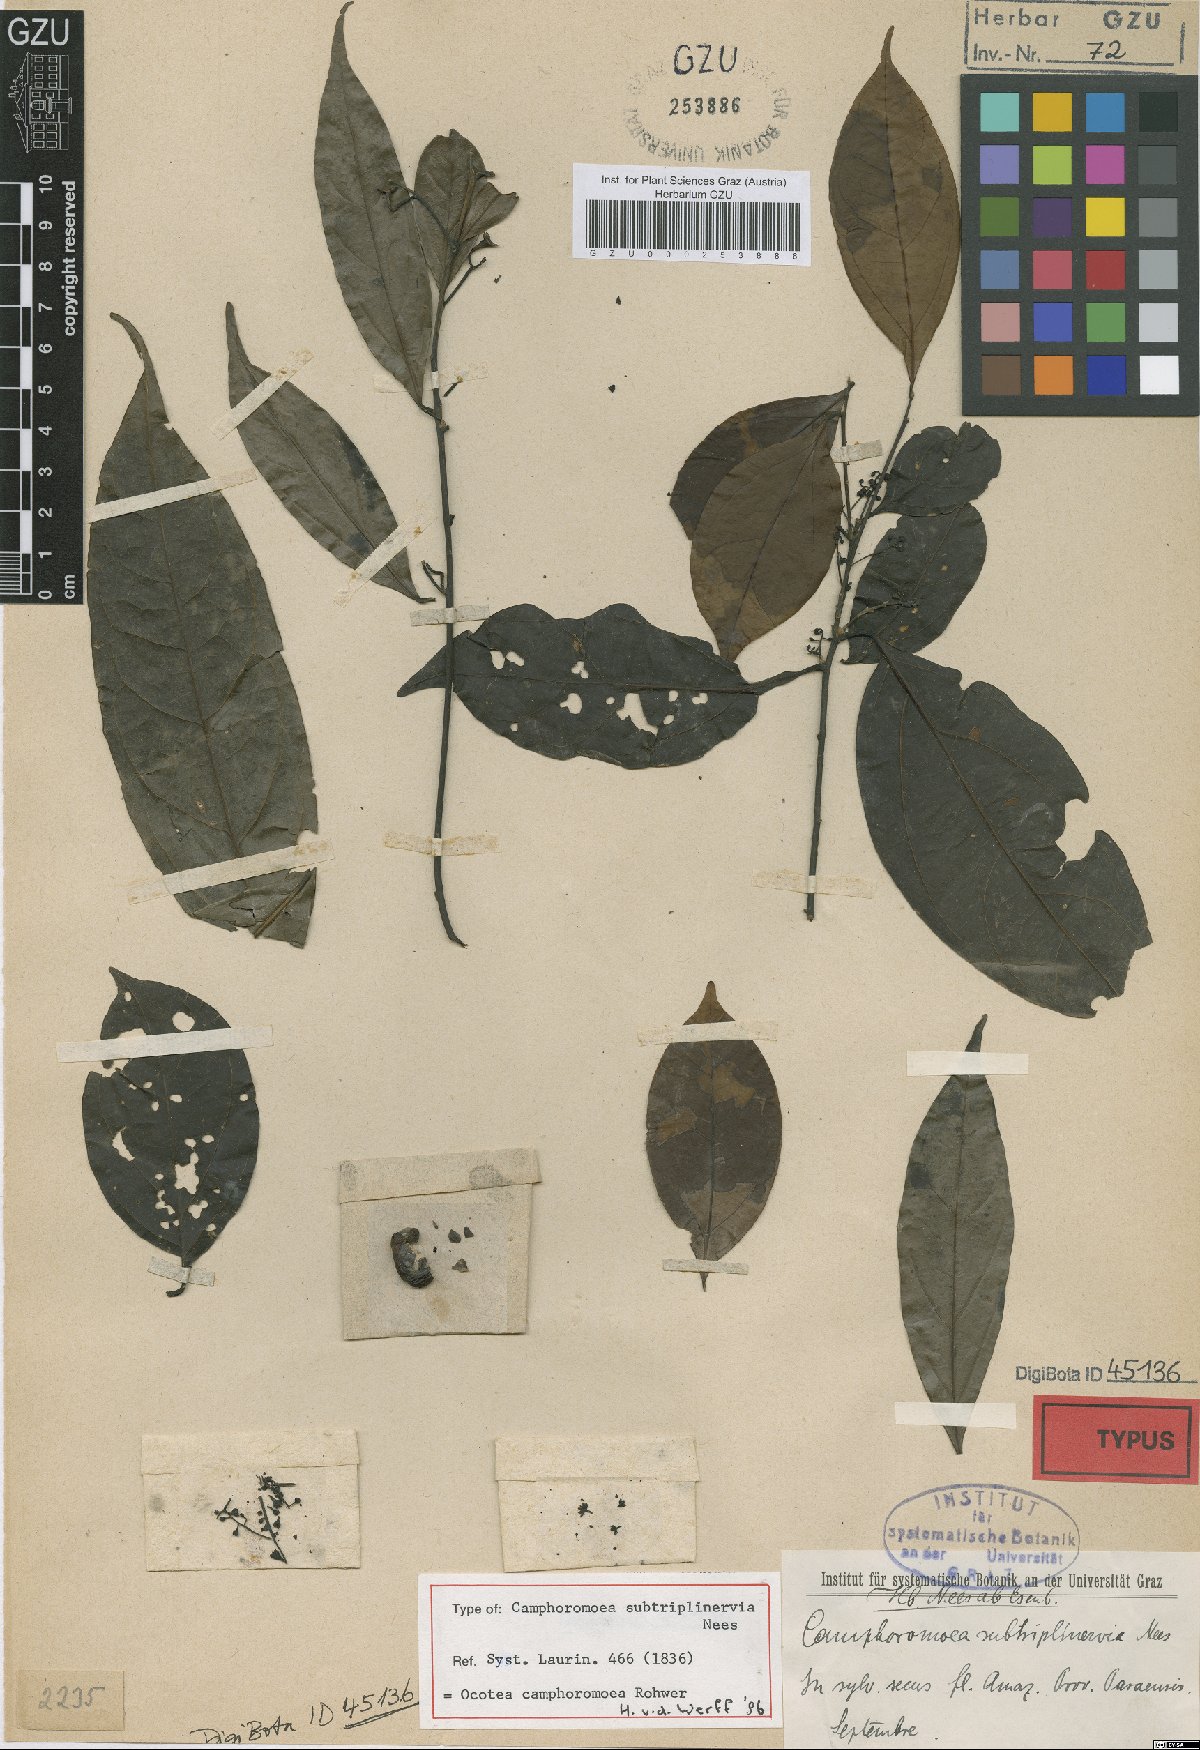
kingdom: Plantae
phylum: Tracheophyta
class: Magnoliopsida
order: Laurales
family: Lauraceae
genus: Ocotea
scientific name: Ocotea camphoromoea
